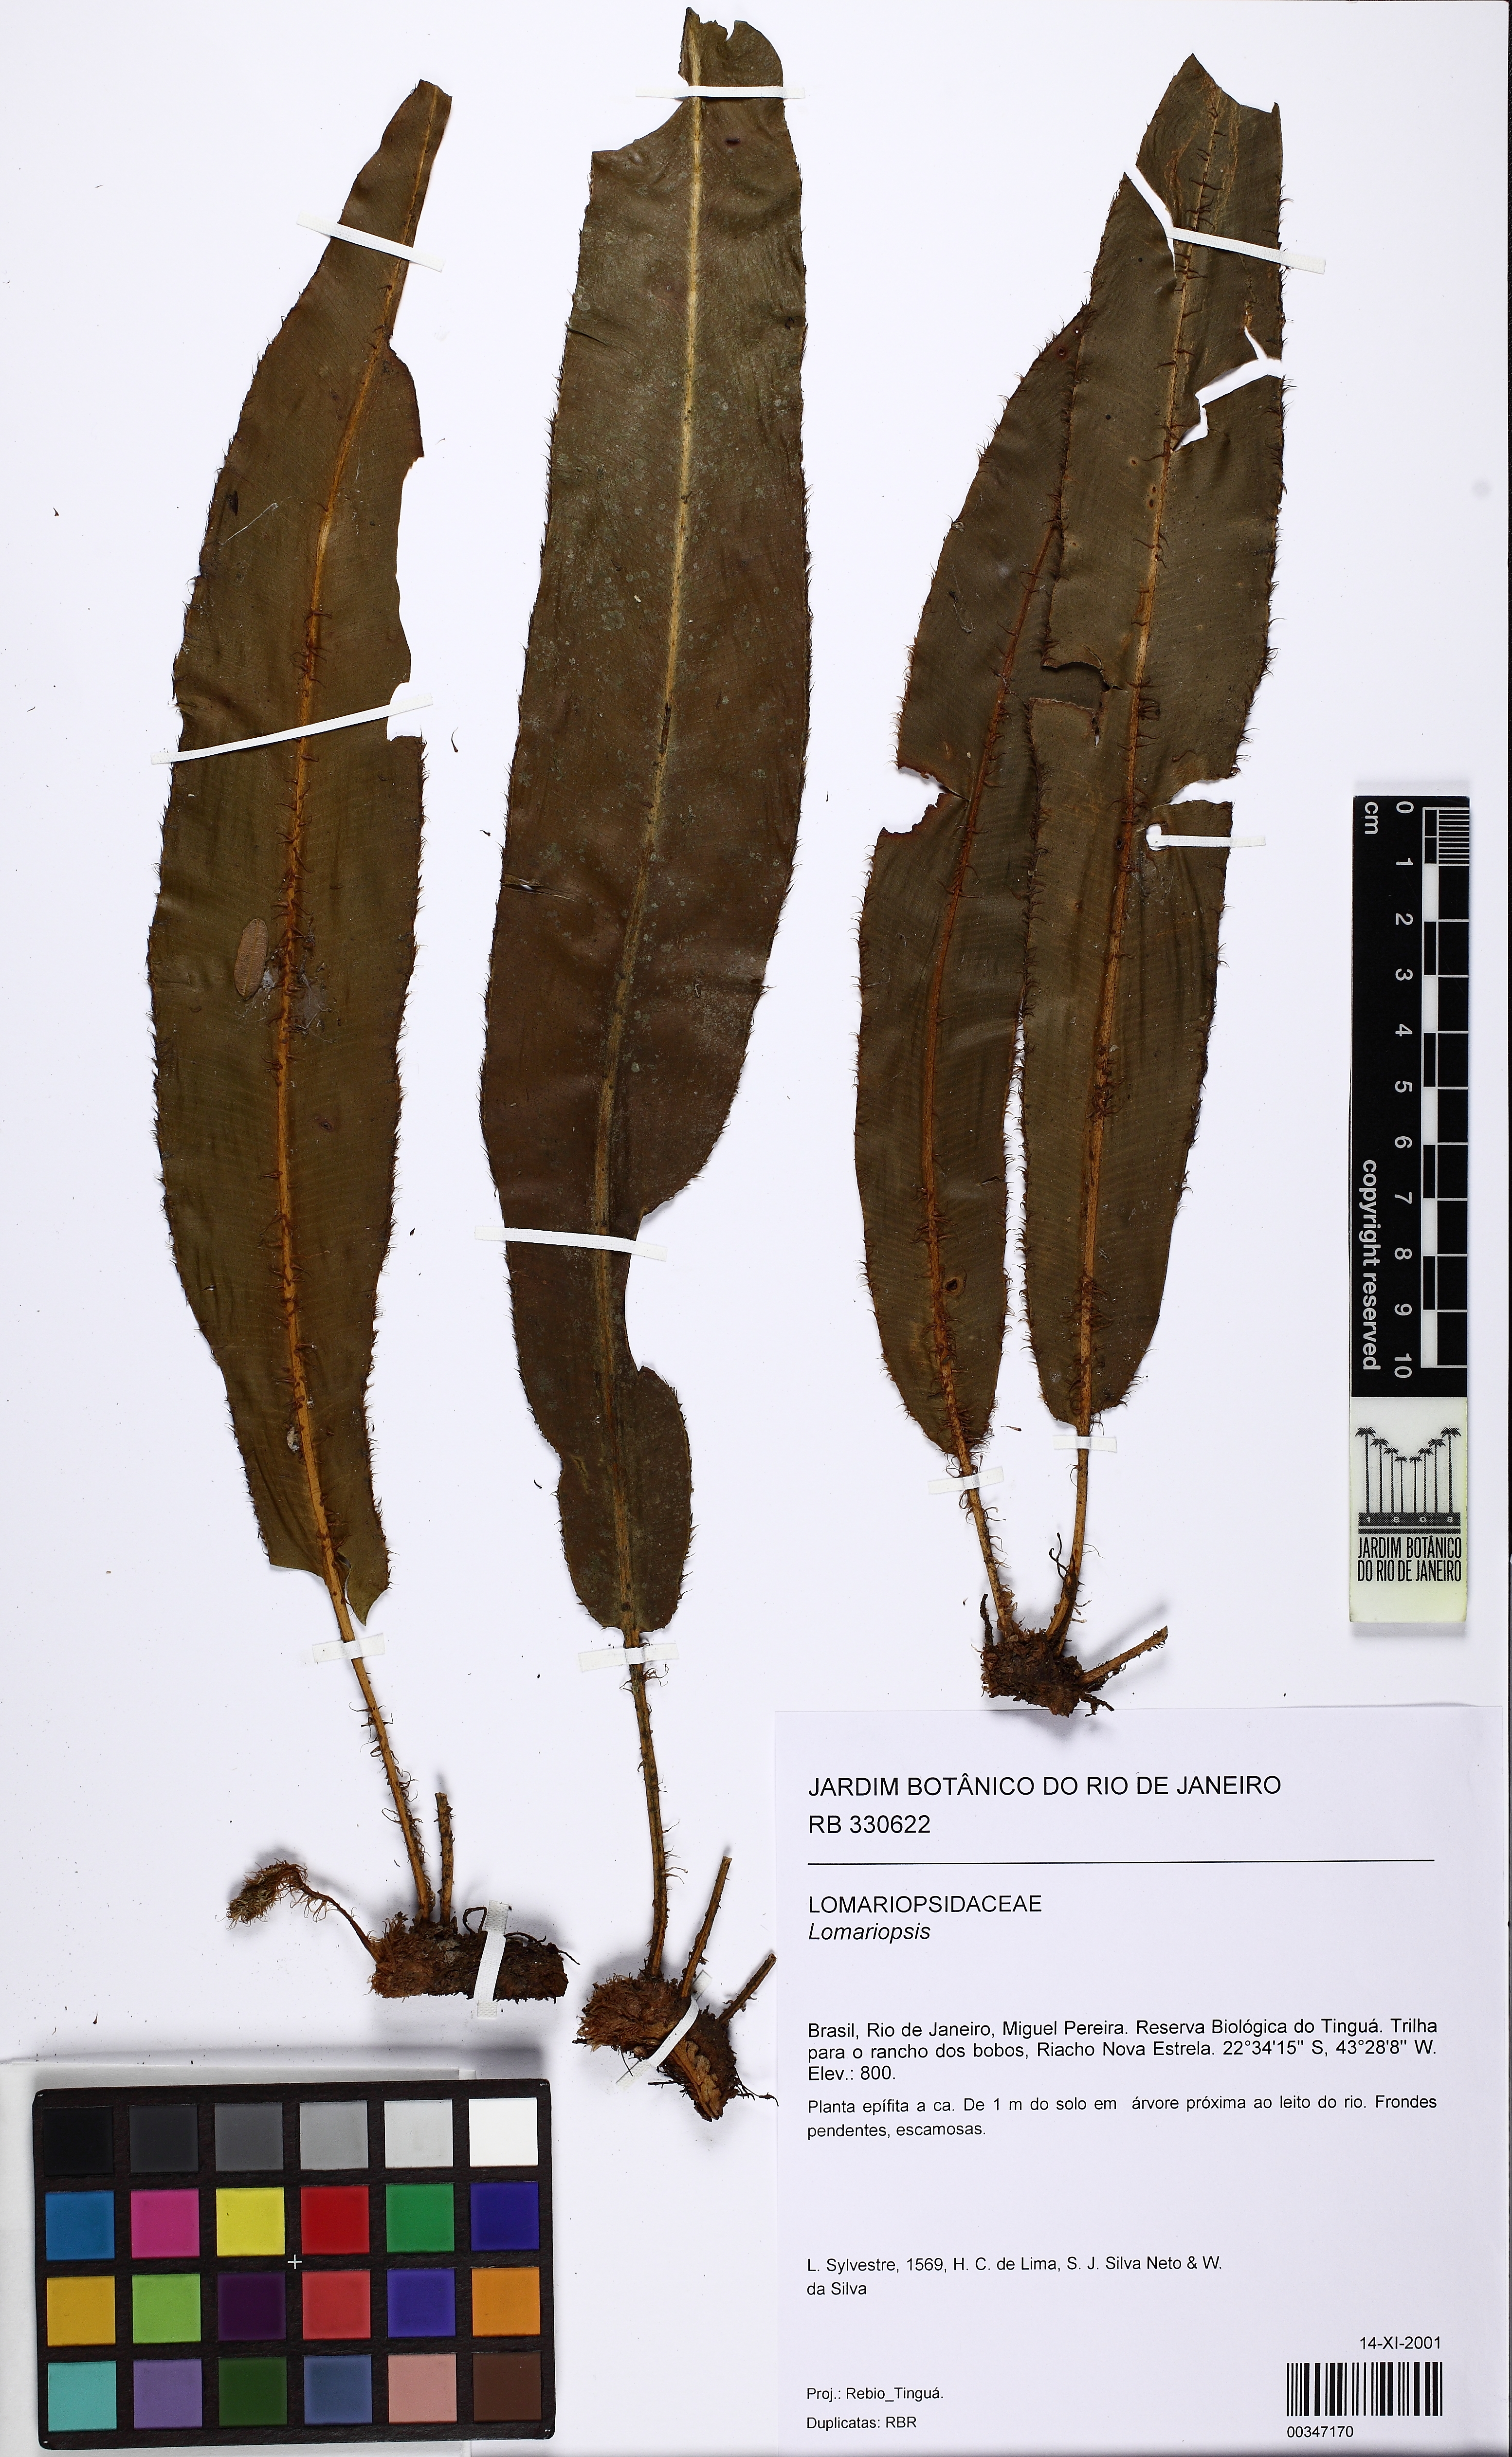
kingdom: Plantae
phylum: Tracheophyta
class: Polypodiopsida
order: Polypodiales
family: Lomariopsidaceae
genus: Lomariopsis
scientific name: Lomariopsis
